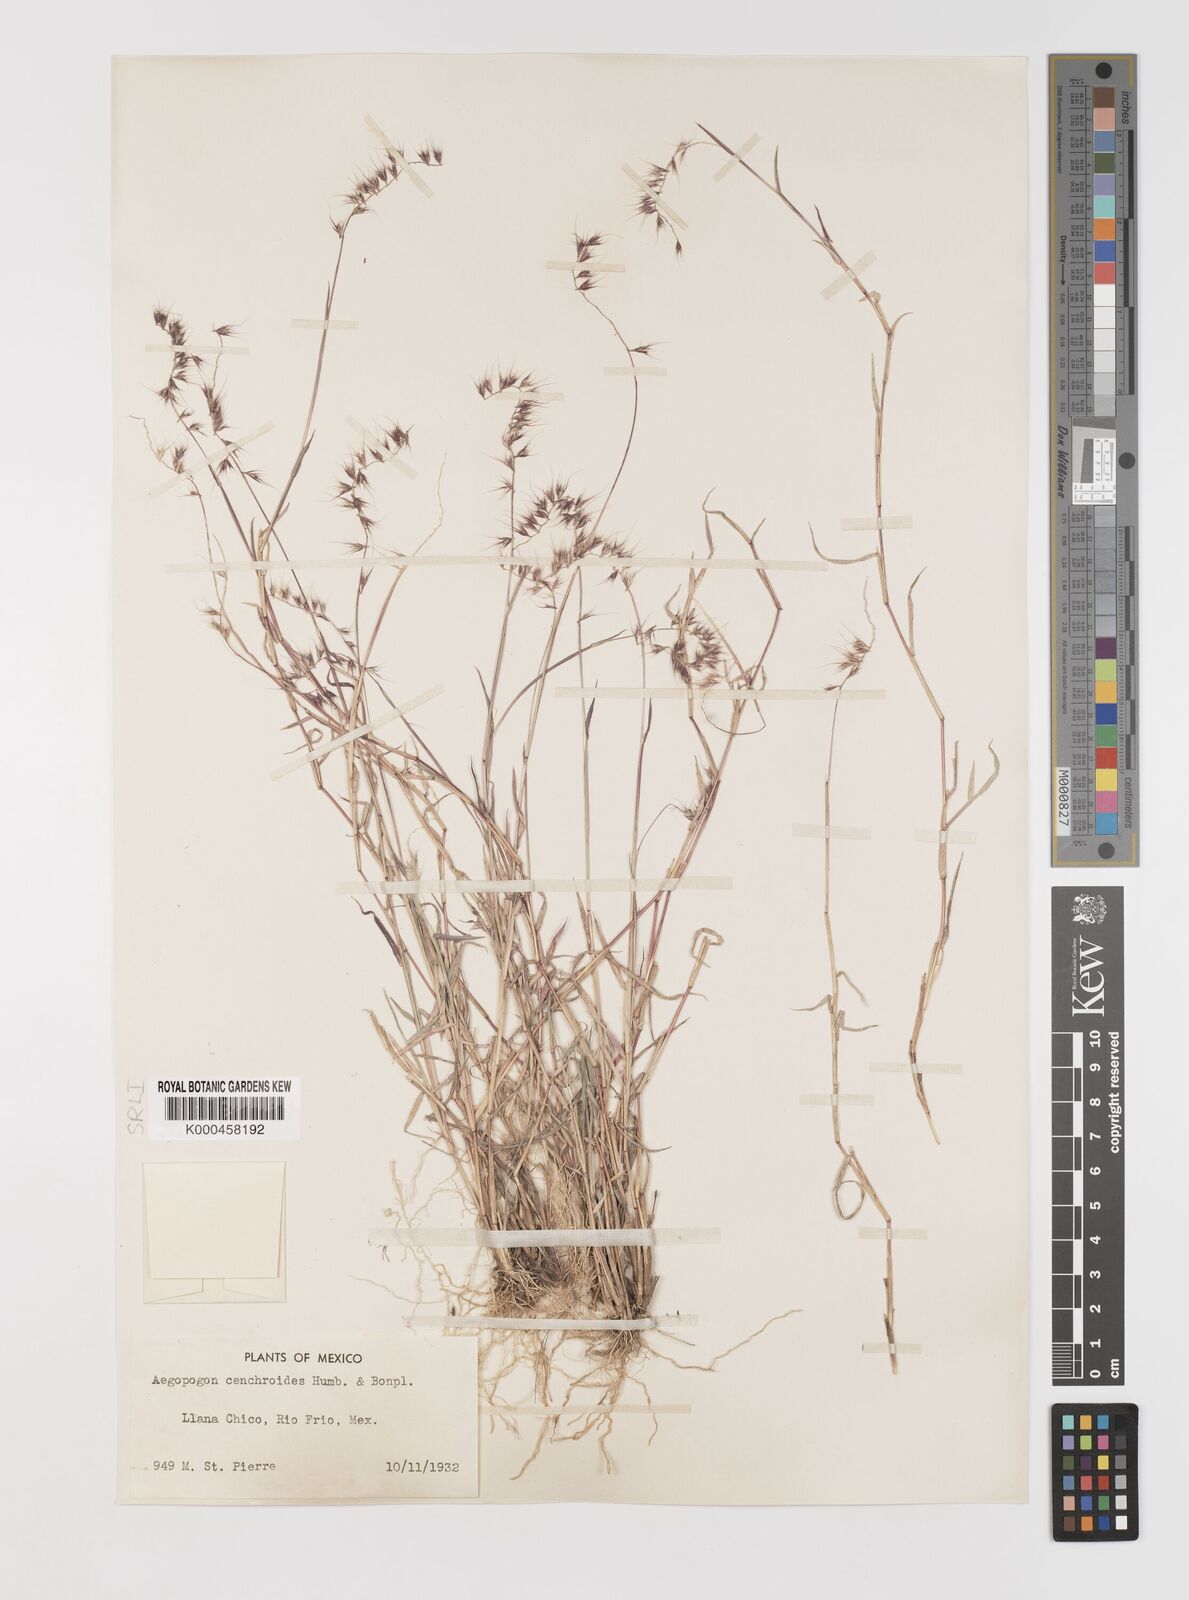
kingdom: Plantae
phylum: Tracheophyta
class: Liliopsida
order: Poales
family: Poaceae
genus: Muhlenbergia
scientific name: Muhlenbergia
